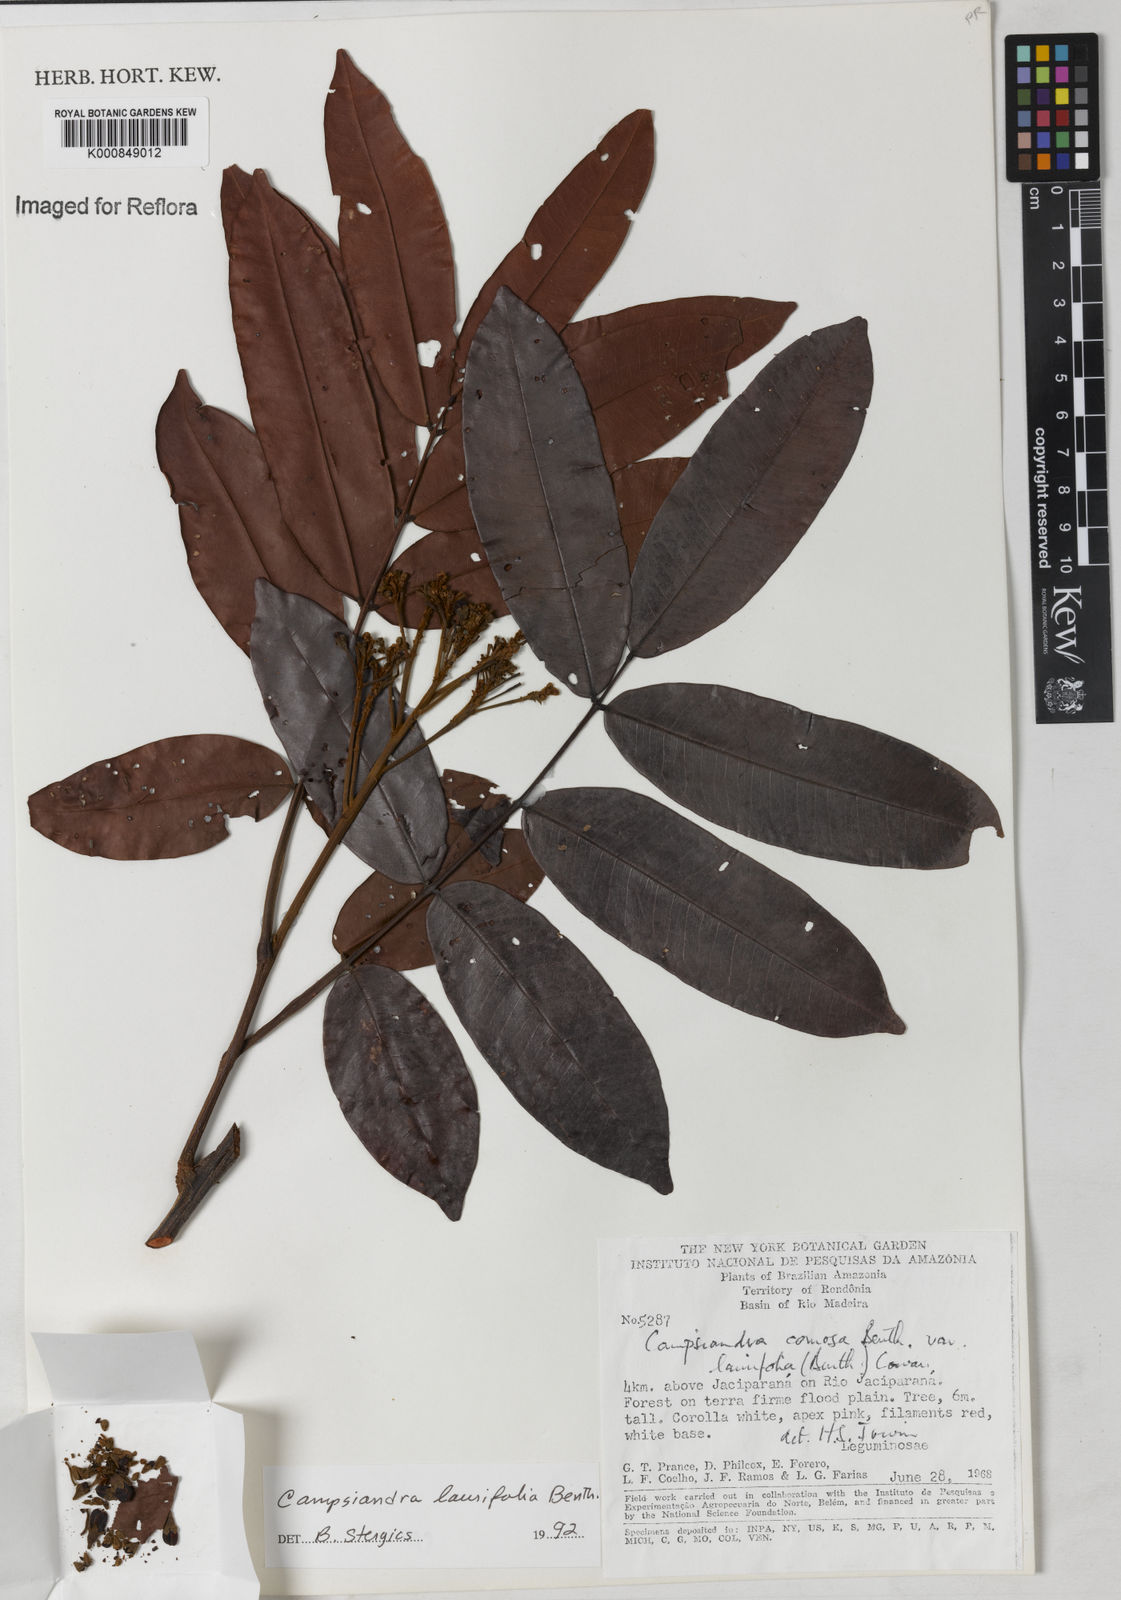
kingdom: Plantae
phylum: Tracheophyta
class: Magnoliopsida
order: Fabales
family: Fabaceae
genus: Campsiandra
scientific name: Campsiandra laurifolia
